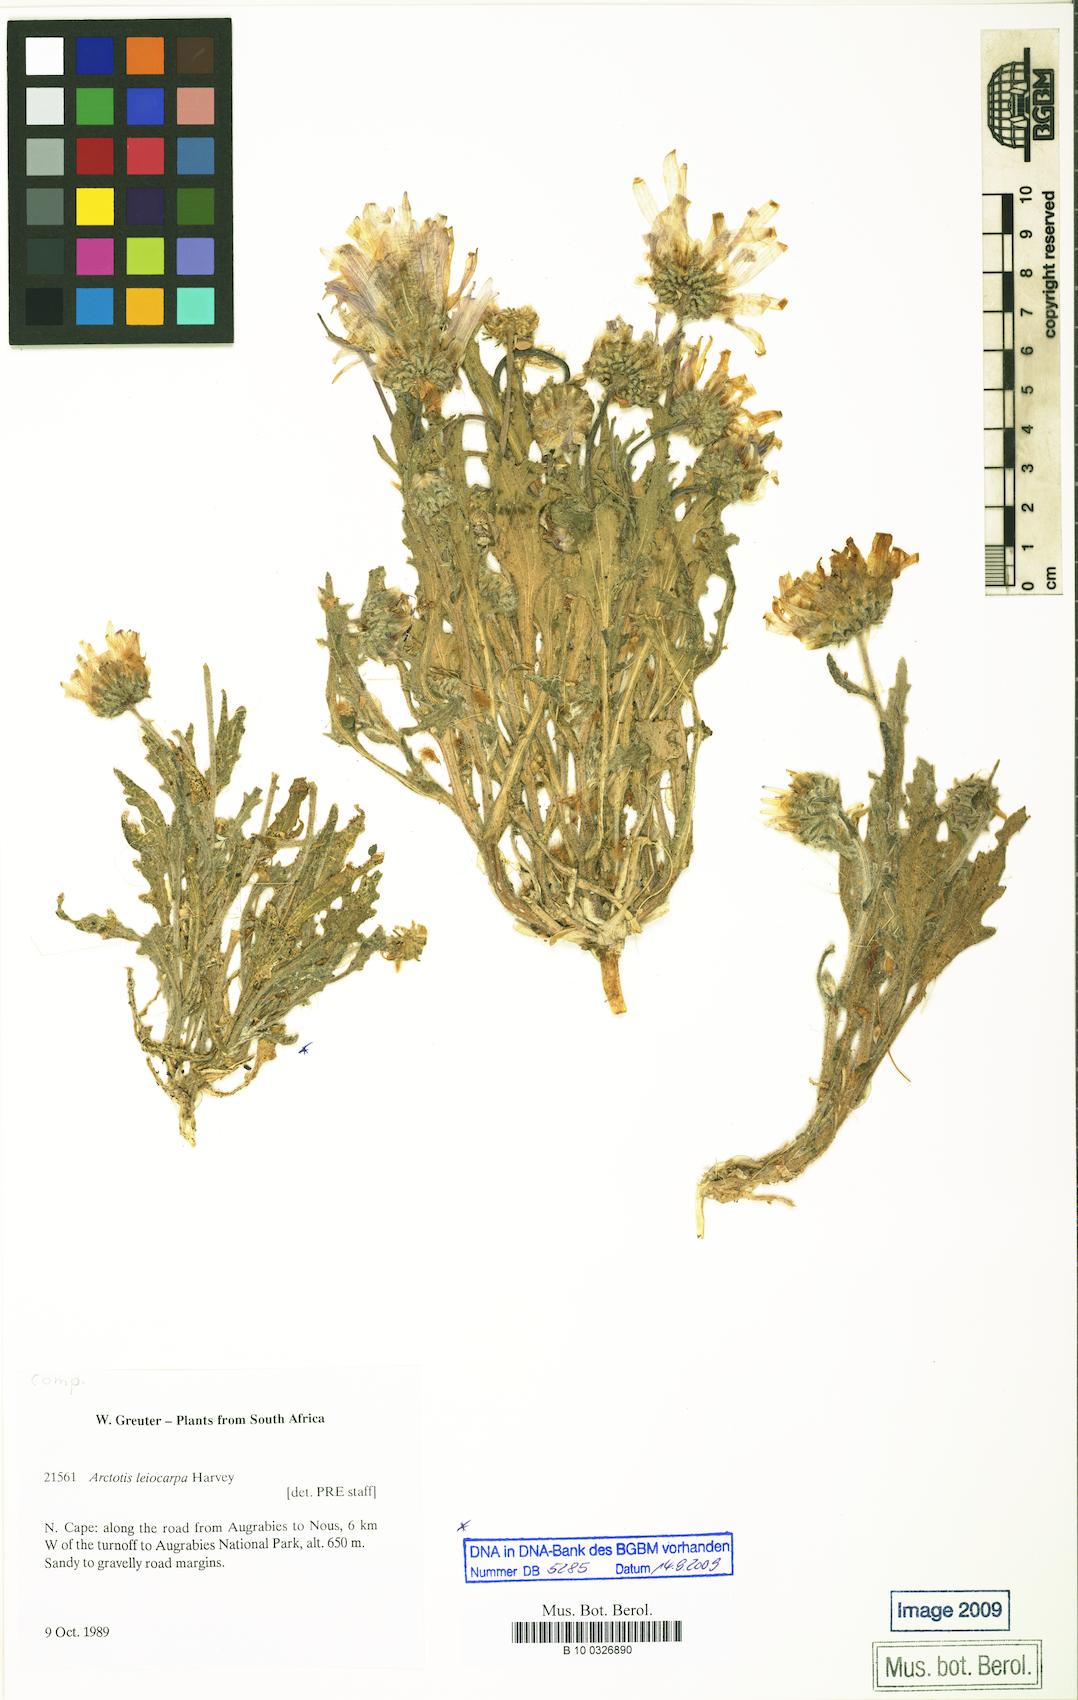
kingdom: Plantae
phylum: Tracheophyta
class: Magnoliopsida
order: Asterales
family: Asteraceae
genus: Arctotis
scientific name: Arctotis leiocarpa
